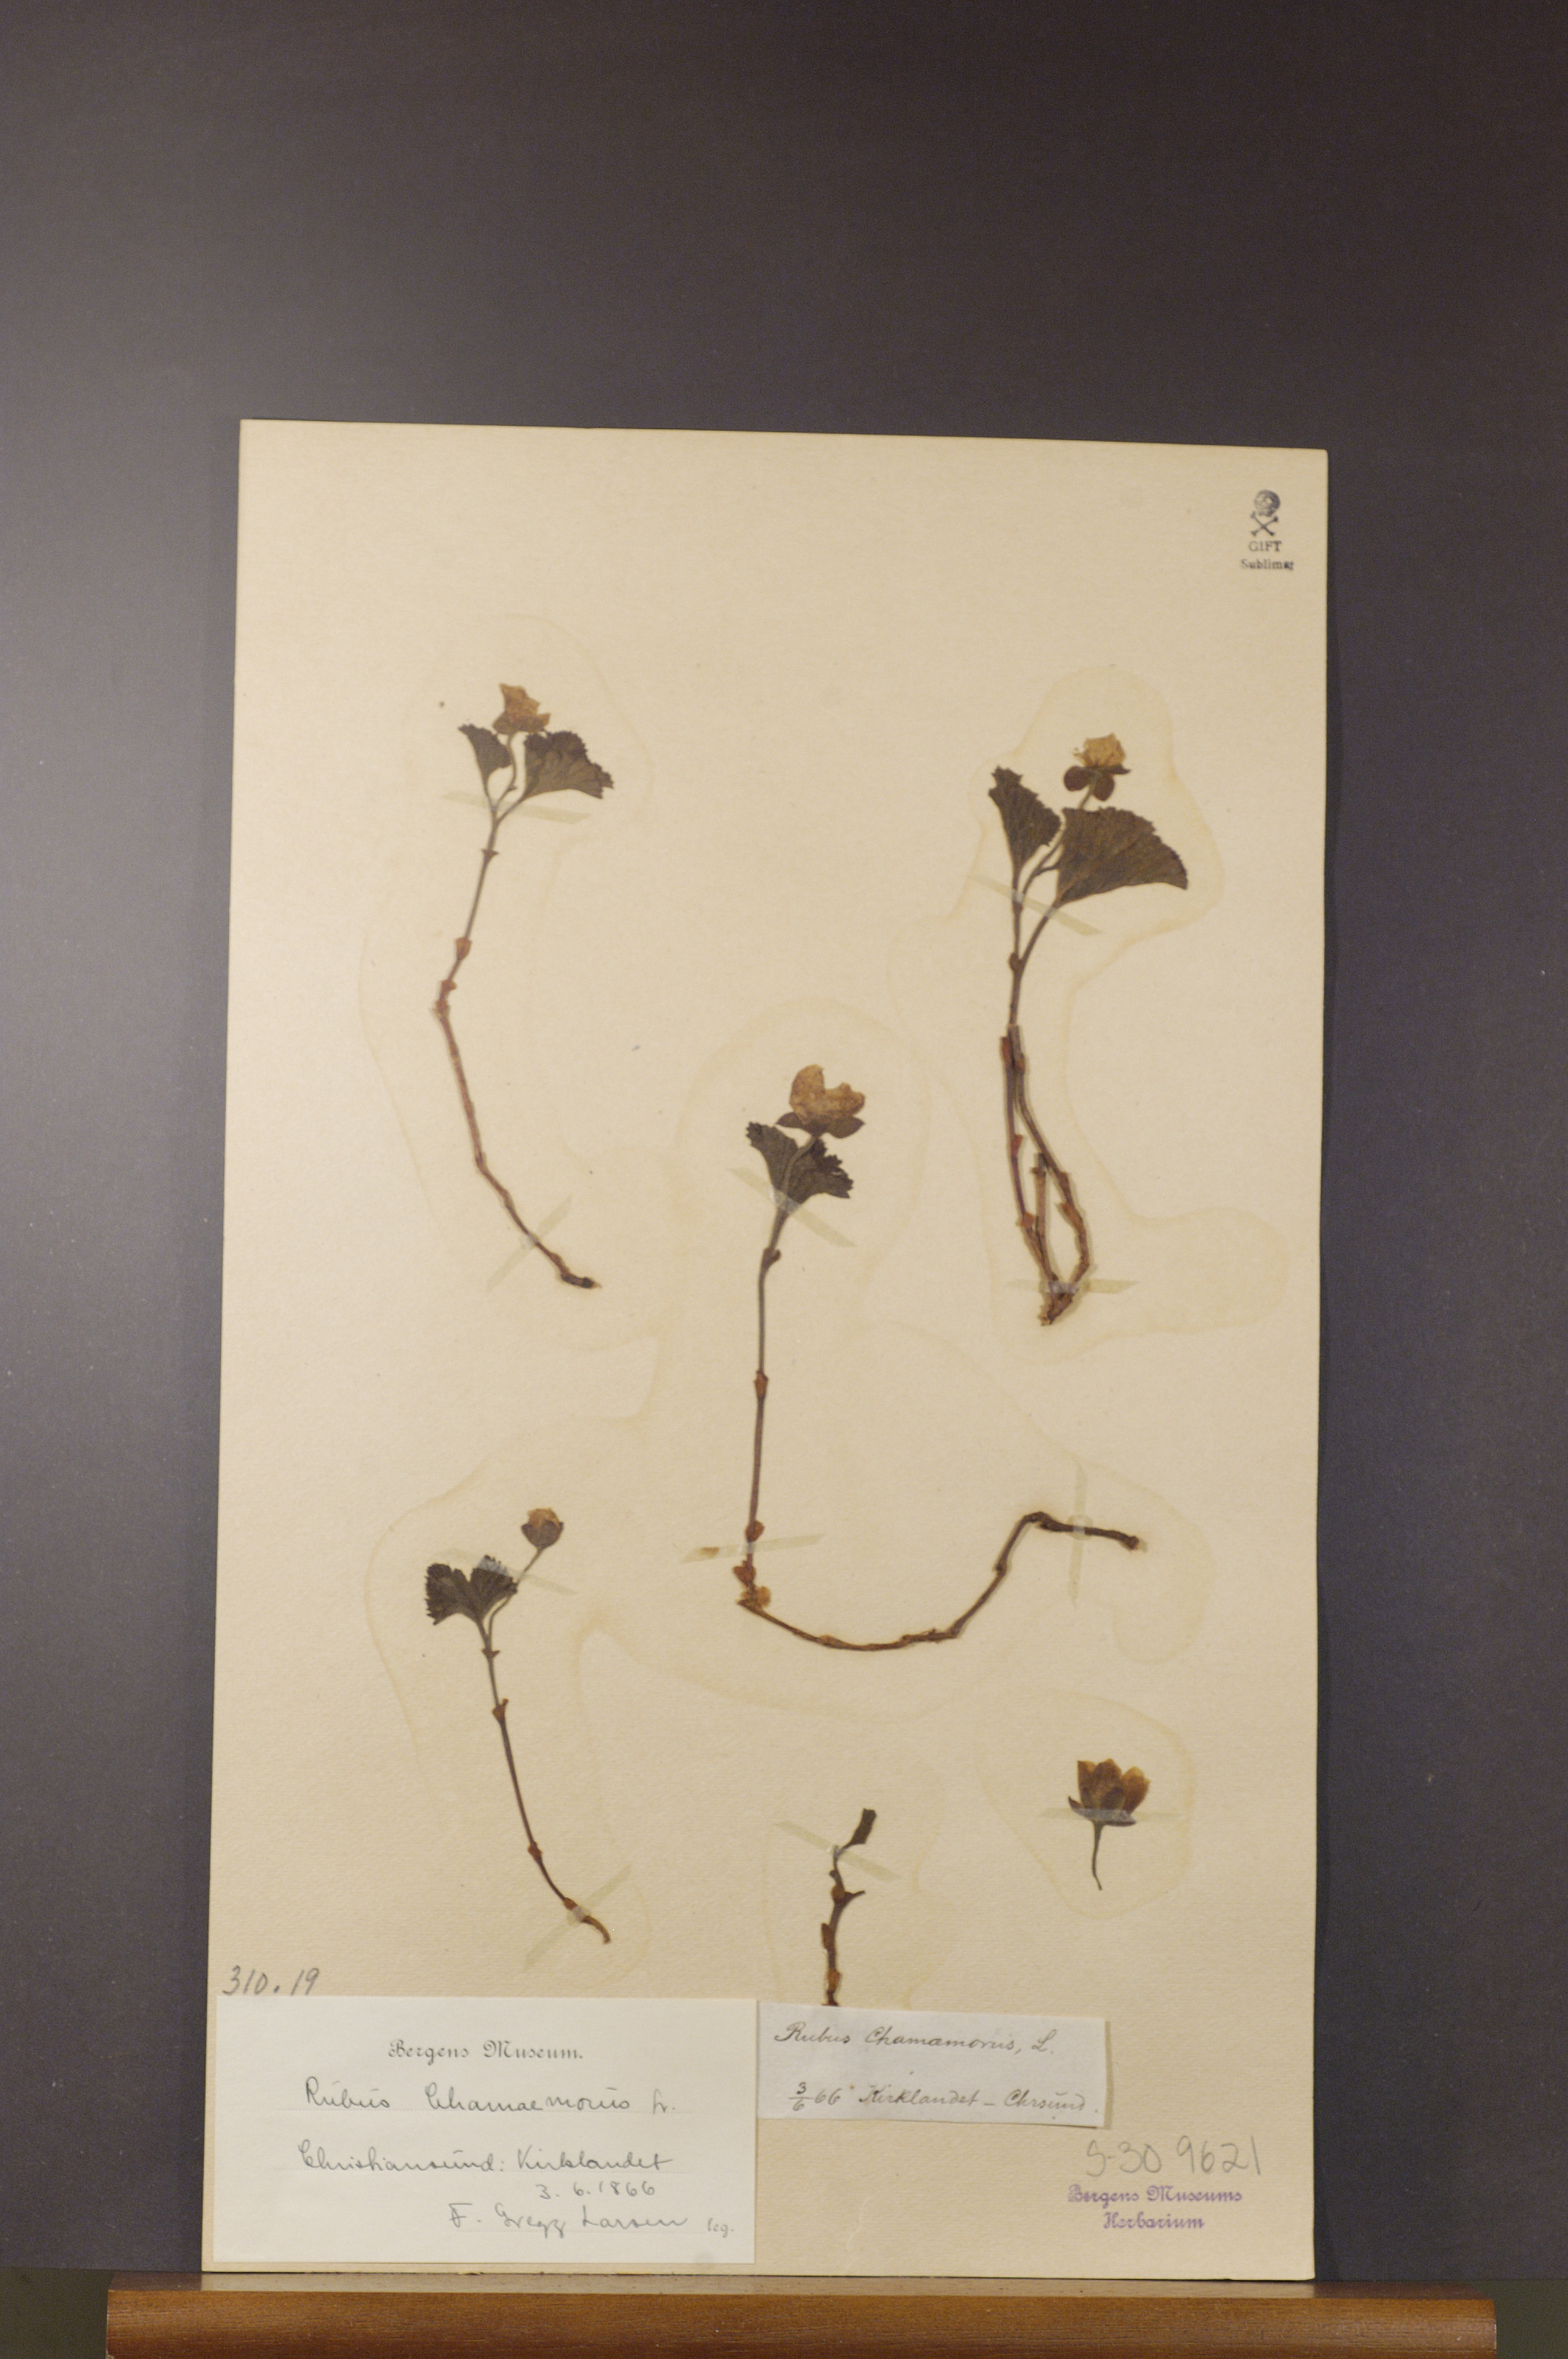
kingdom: Plantae
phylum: Tracheophyta
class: Magnoliopsida
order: Rosales
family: Rosaceae
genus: Rubus
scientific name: Rubus chamaemorus
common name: Cloudberry
